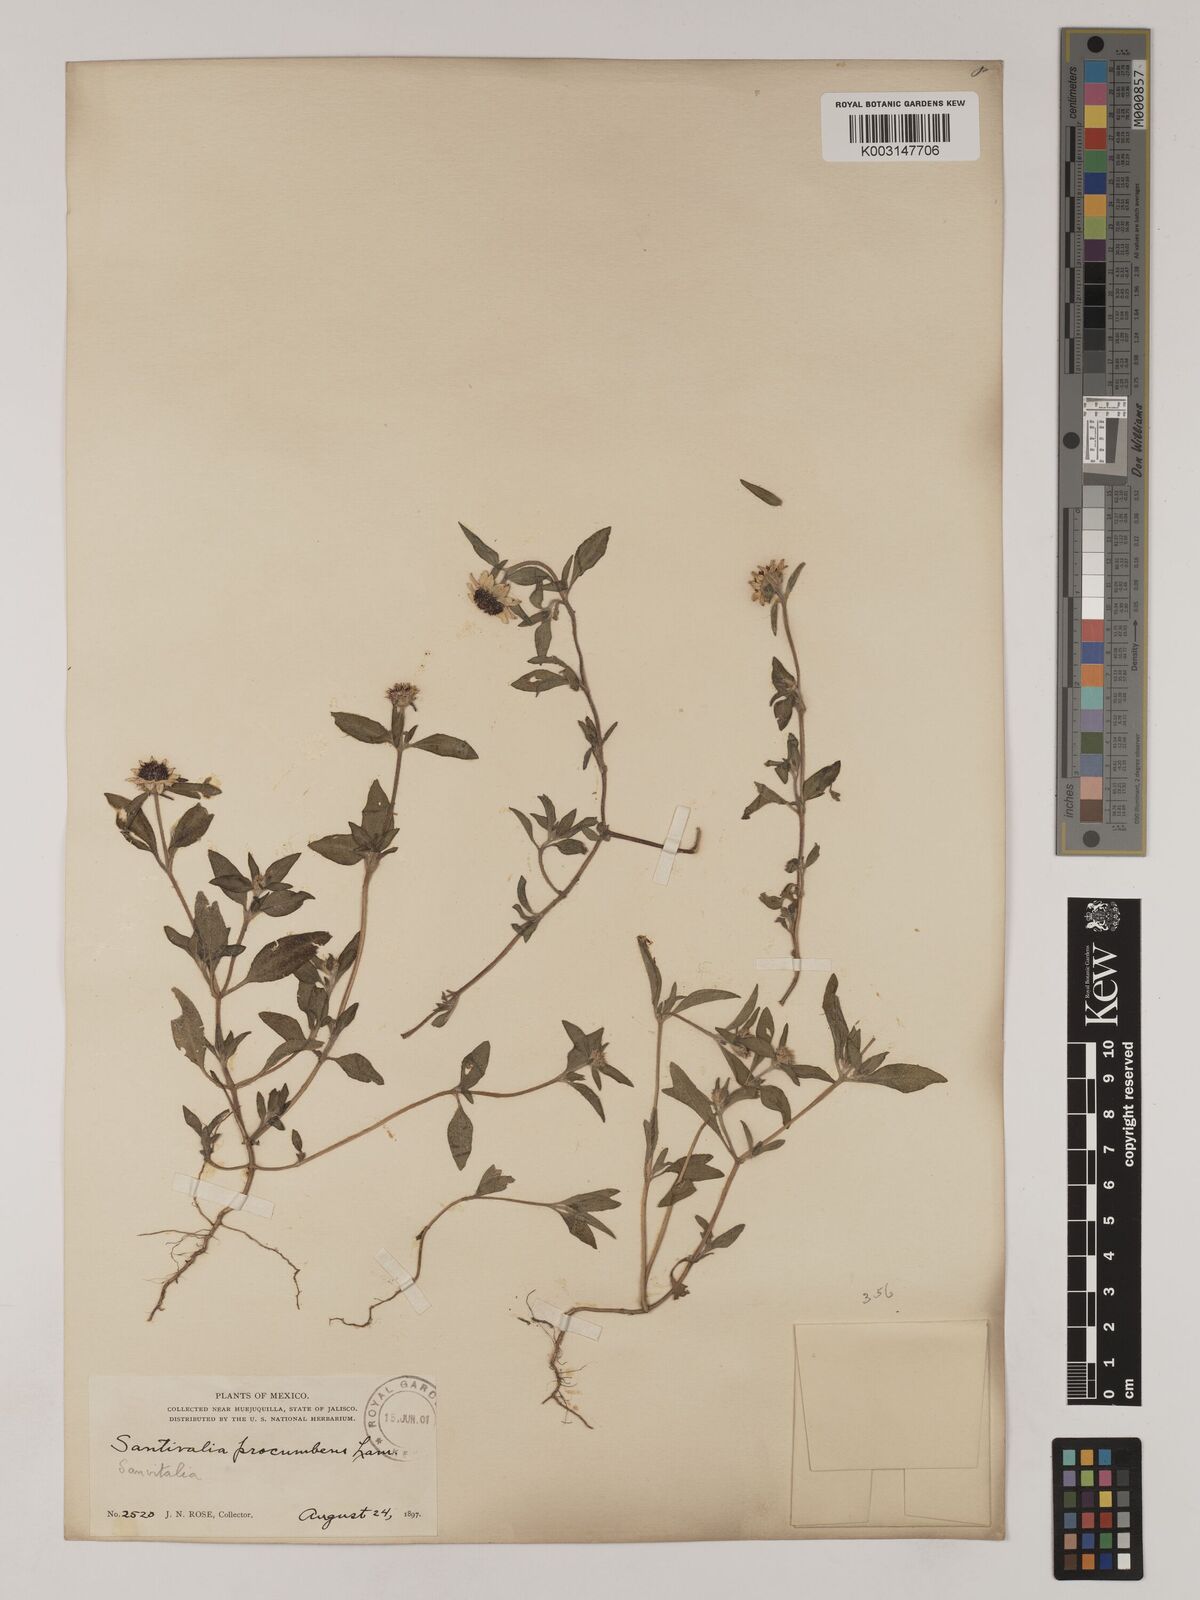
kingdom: Plantae
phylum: Tracheophyta
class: Magnoliopsida
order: Asterales
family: Asteraceae
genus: Sanvitalia
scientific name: Sanvitalia procumbens
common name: Mexican creeping zinnia
